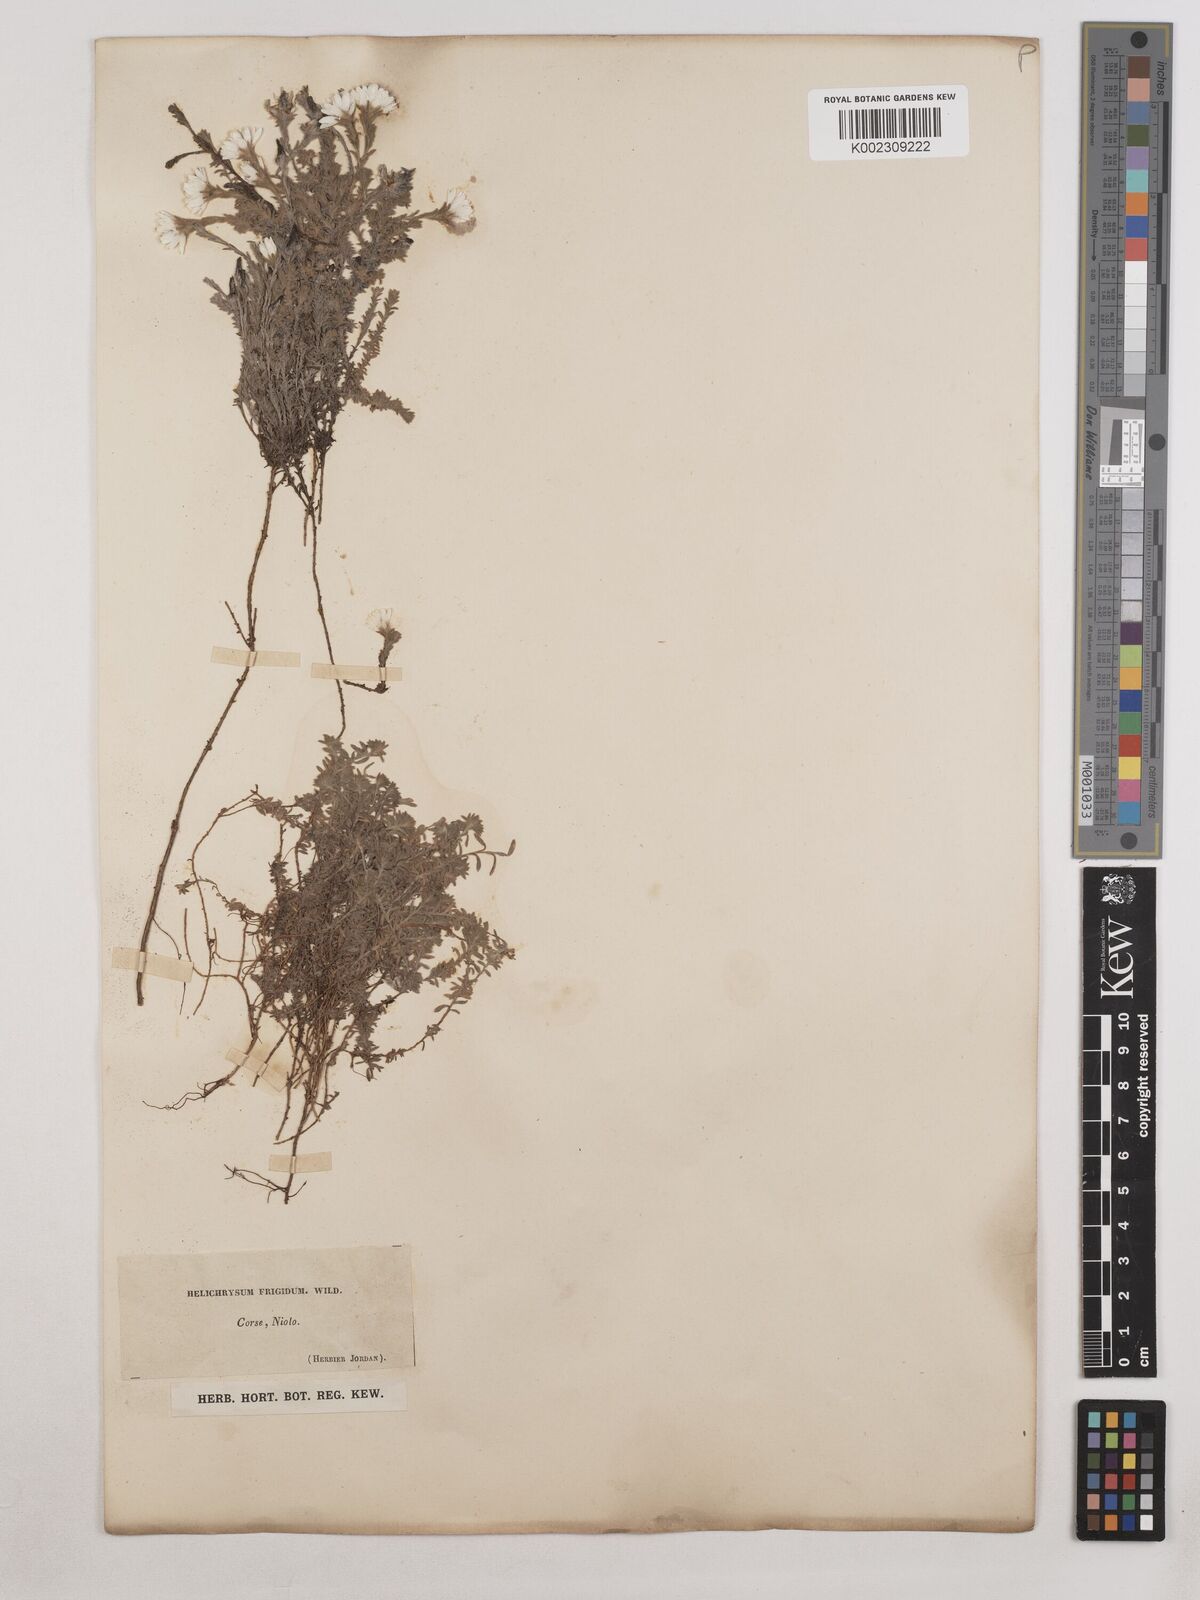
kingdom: Plantae
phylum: Tracheophyta
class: Magnoliopsida
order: Asterales
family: Asteraceae
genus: Castroviejoa
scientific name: Castroviejoa frigida
